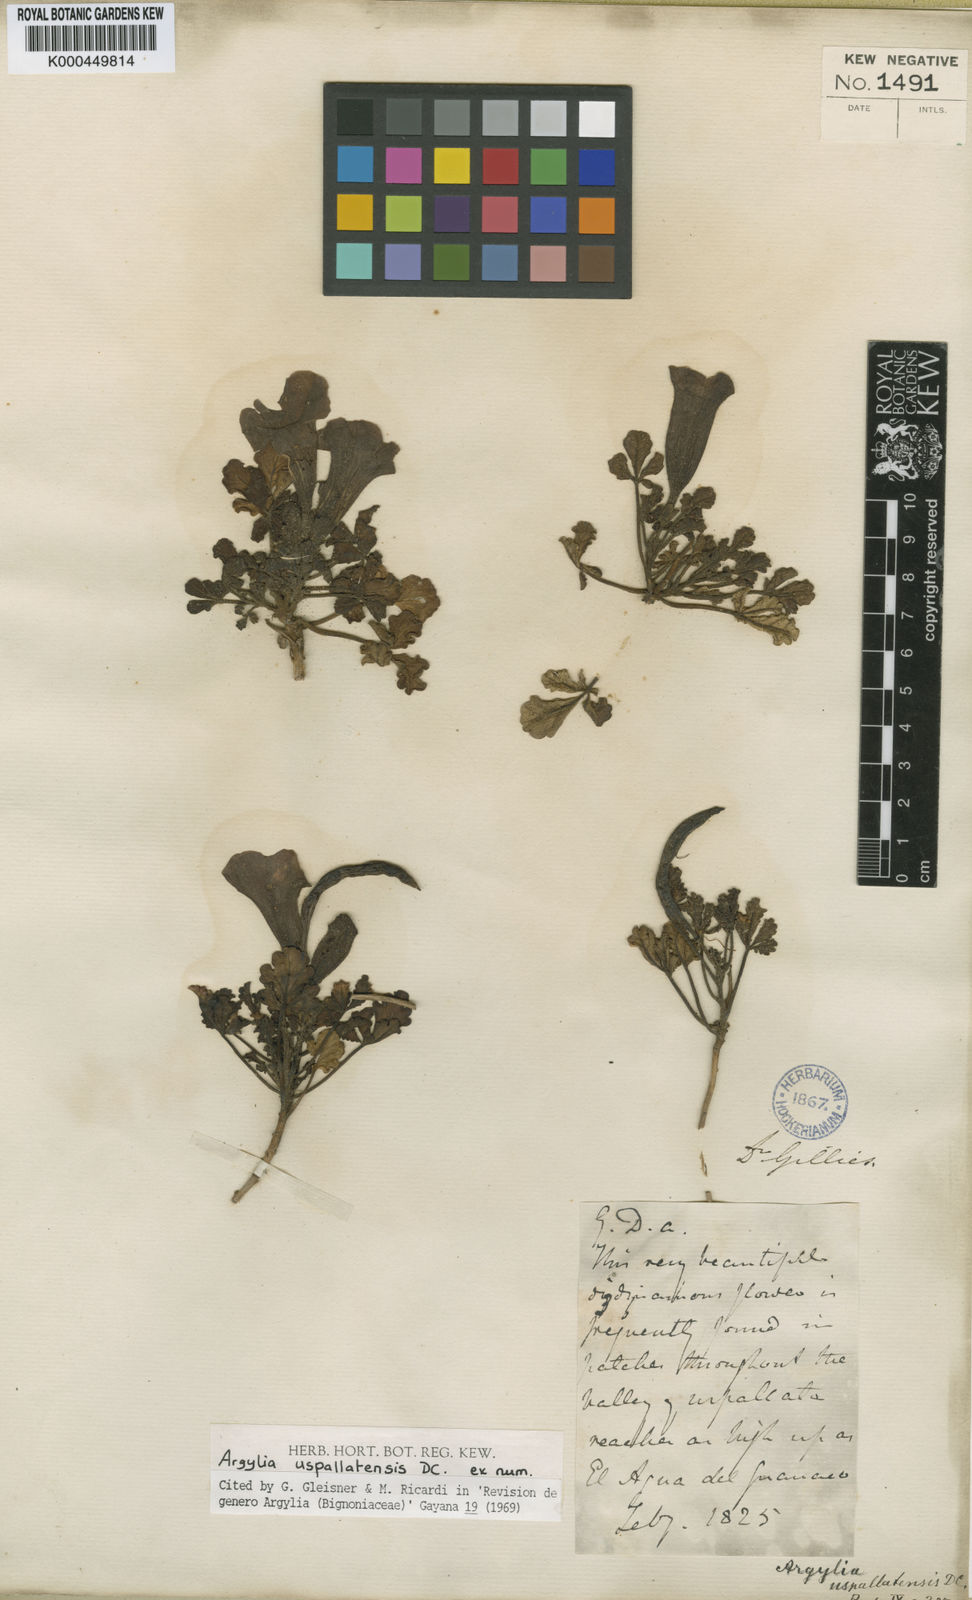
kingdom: Plantae
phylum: Tracheophyta
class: Magnoliopsida
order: Lamiales
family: Bignoniaceae
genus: Argylia
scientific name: Argylia uspallatensis
